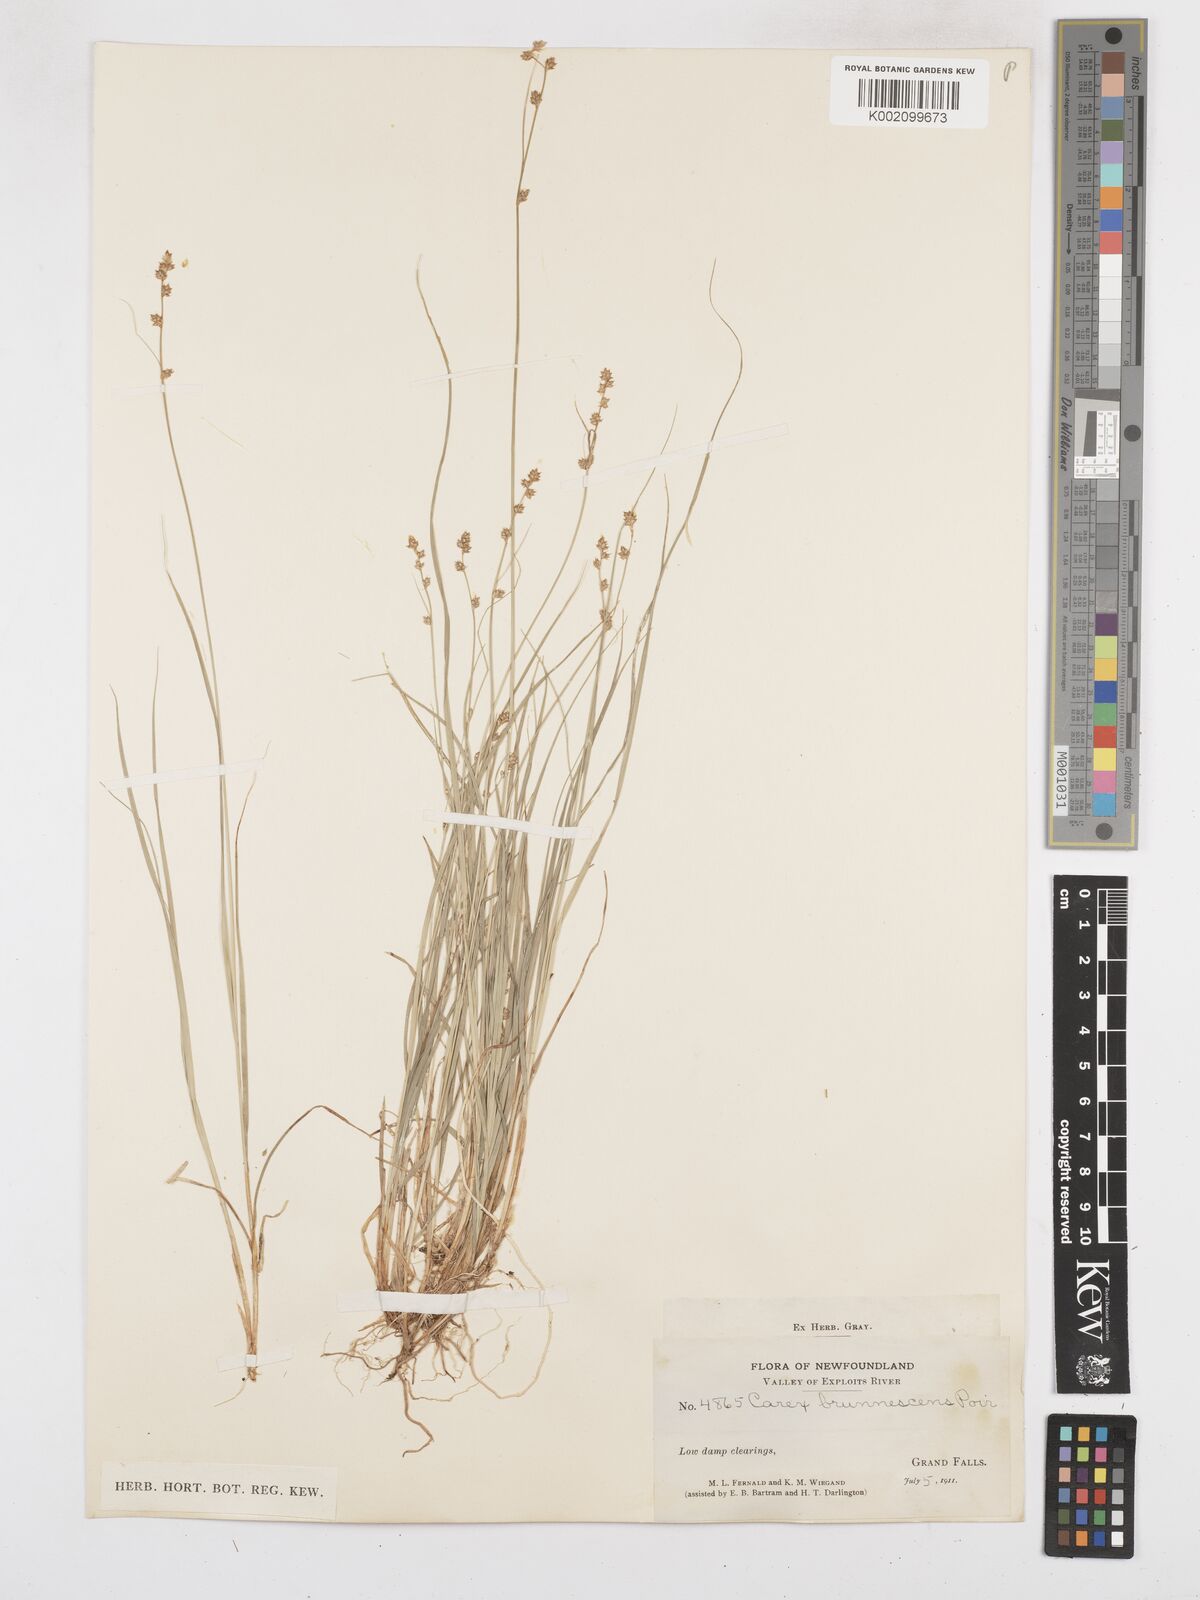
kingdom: Plantae
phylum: Tracheophyta
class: Liliopsida
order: Poales
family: Cyperaceae
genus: Carex
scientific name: Carex brunnescens
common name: Brown sedge
